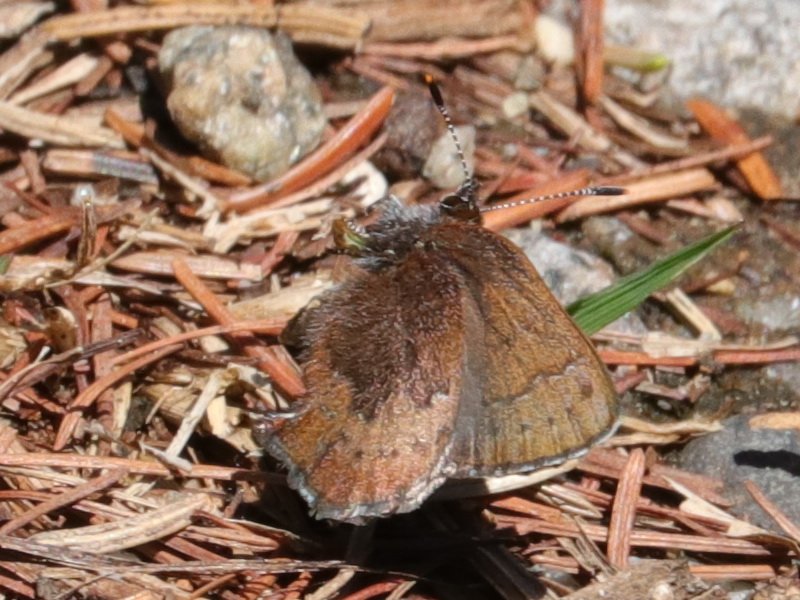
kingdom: Animalia
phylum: Arthropoda
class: Insecta
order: Lepidoptera
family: Lycaenidae
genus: Incisalia
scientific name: Incisalia irioides
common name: Brown Elfin
